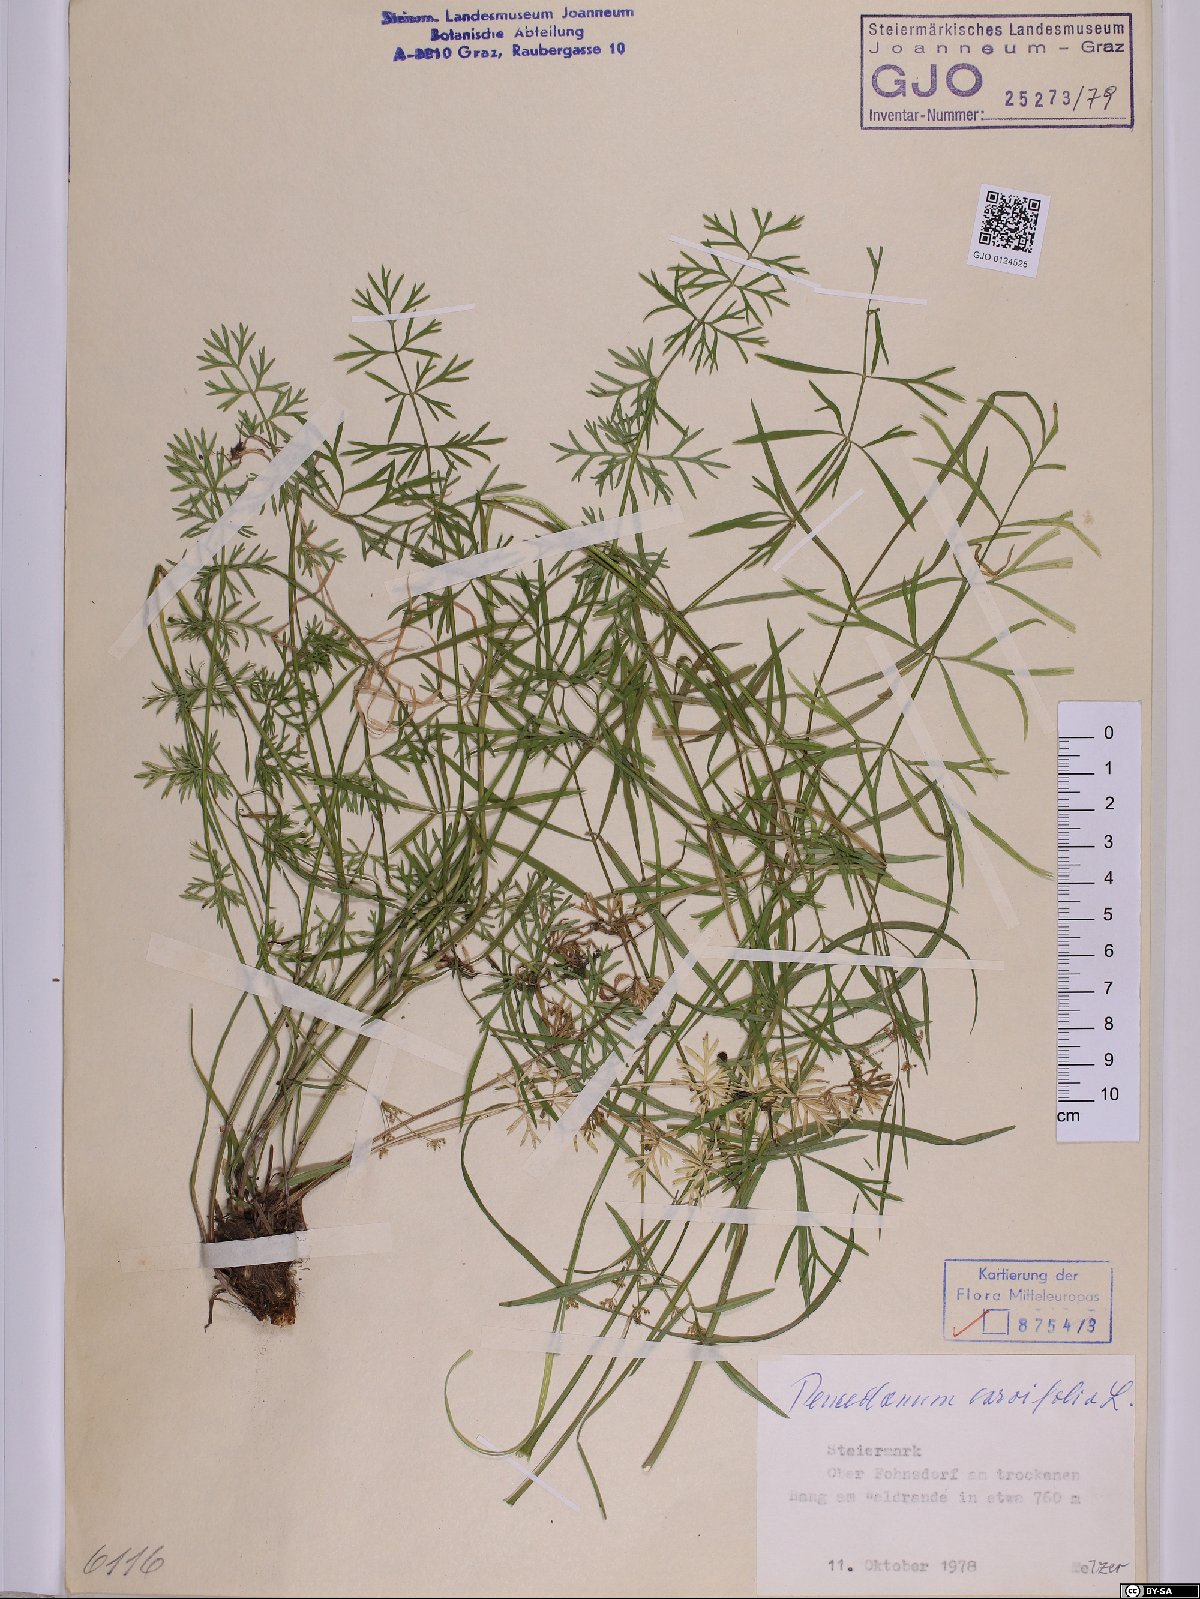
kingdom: Plantae
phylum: Tracheophyta
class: Magnoliopsida
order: Apiales
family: Apiaceae
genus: Dichoropetalum
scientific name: Dichoropetalum carvifolia
